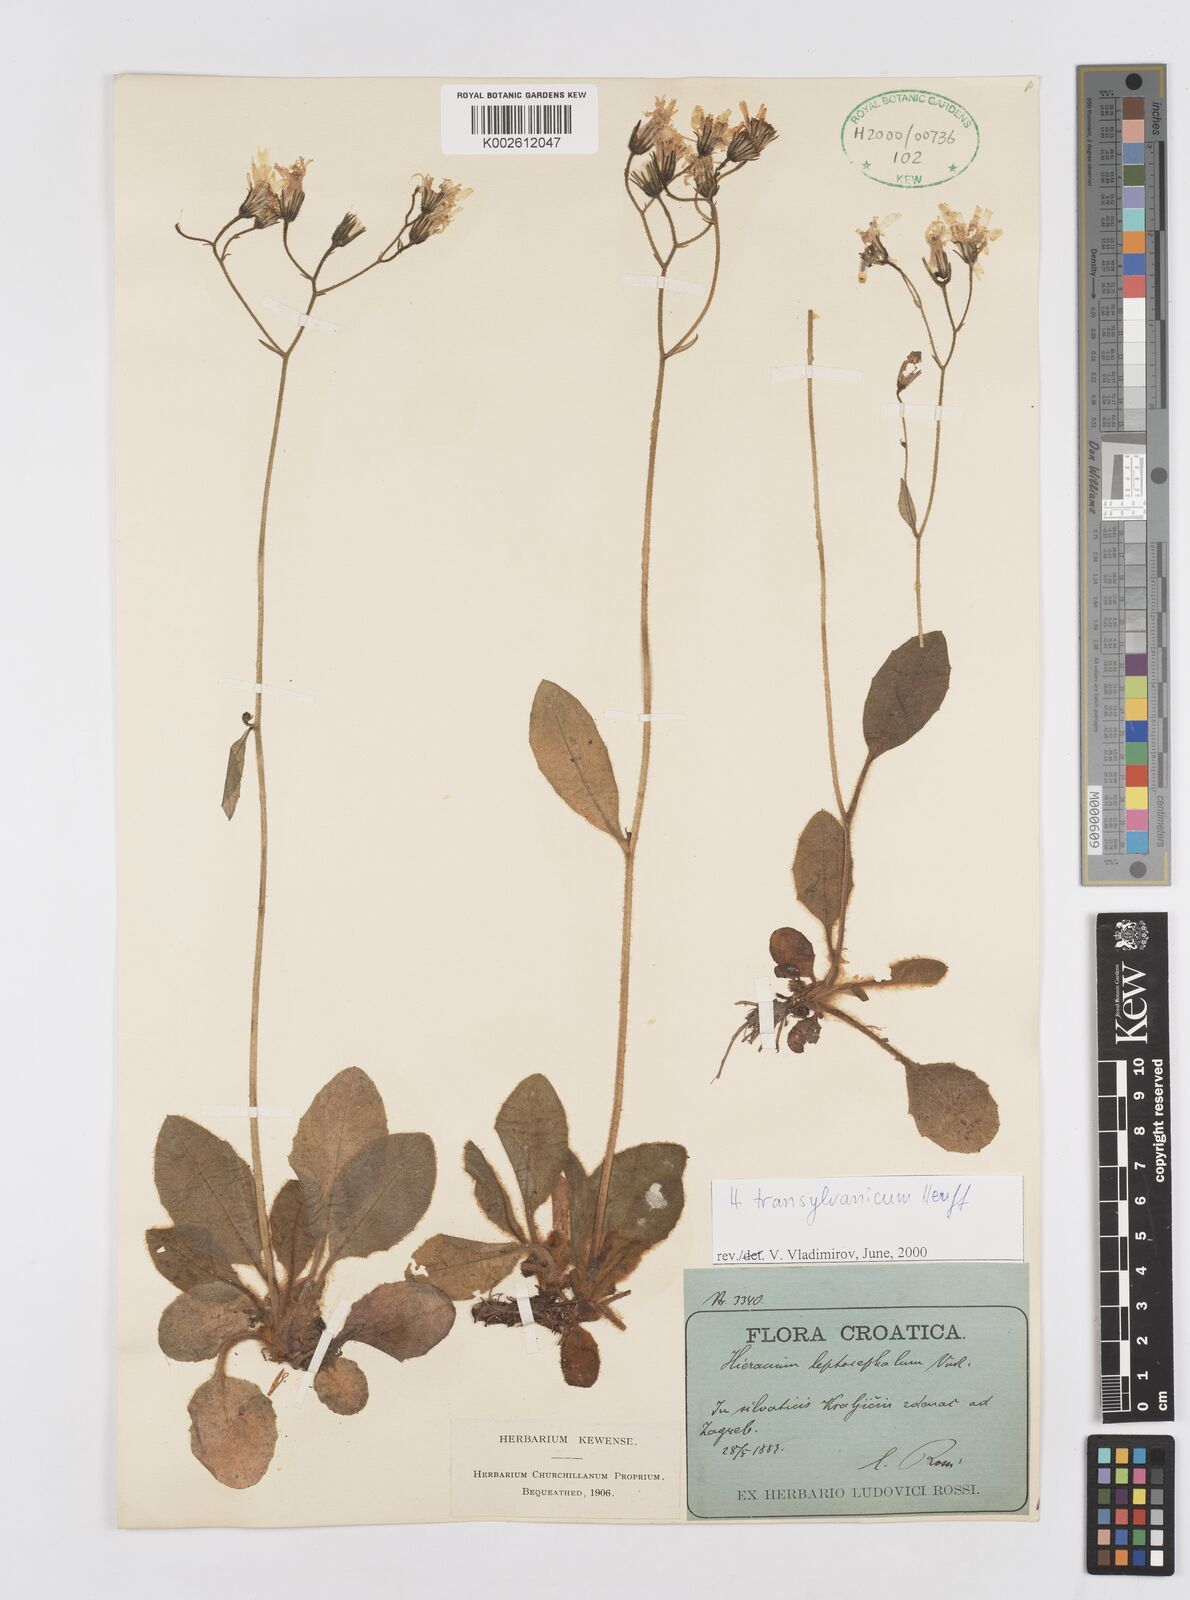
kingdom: Plantae
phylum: Tracheophyta
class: Magnoliopsida
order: Asterales
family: Asteraceae
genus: Hieracium
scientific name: Hieracium transylvanicum
